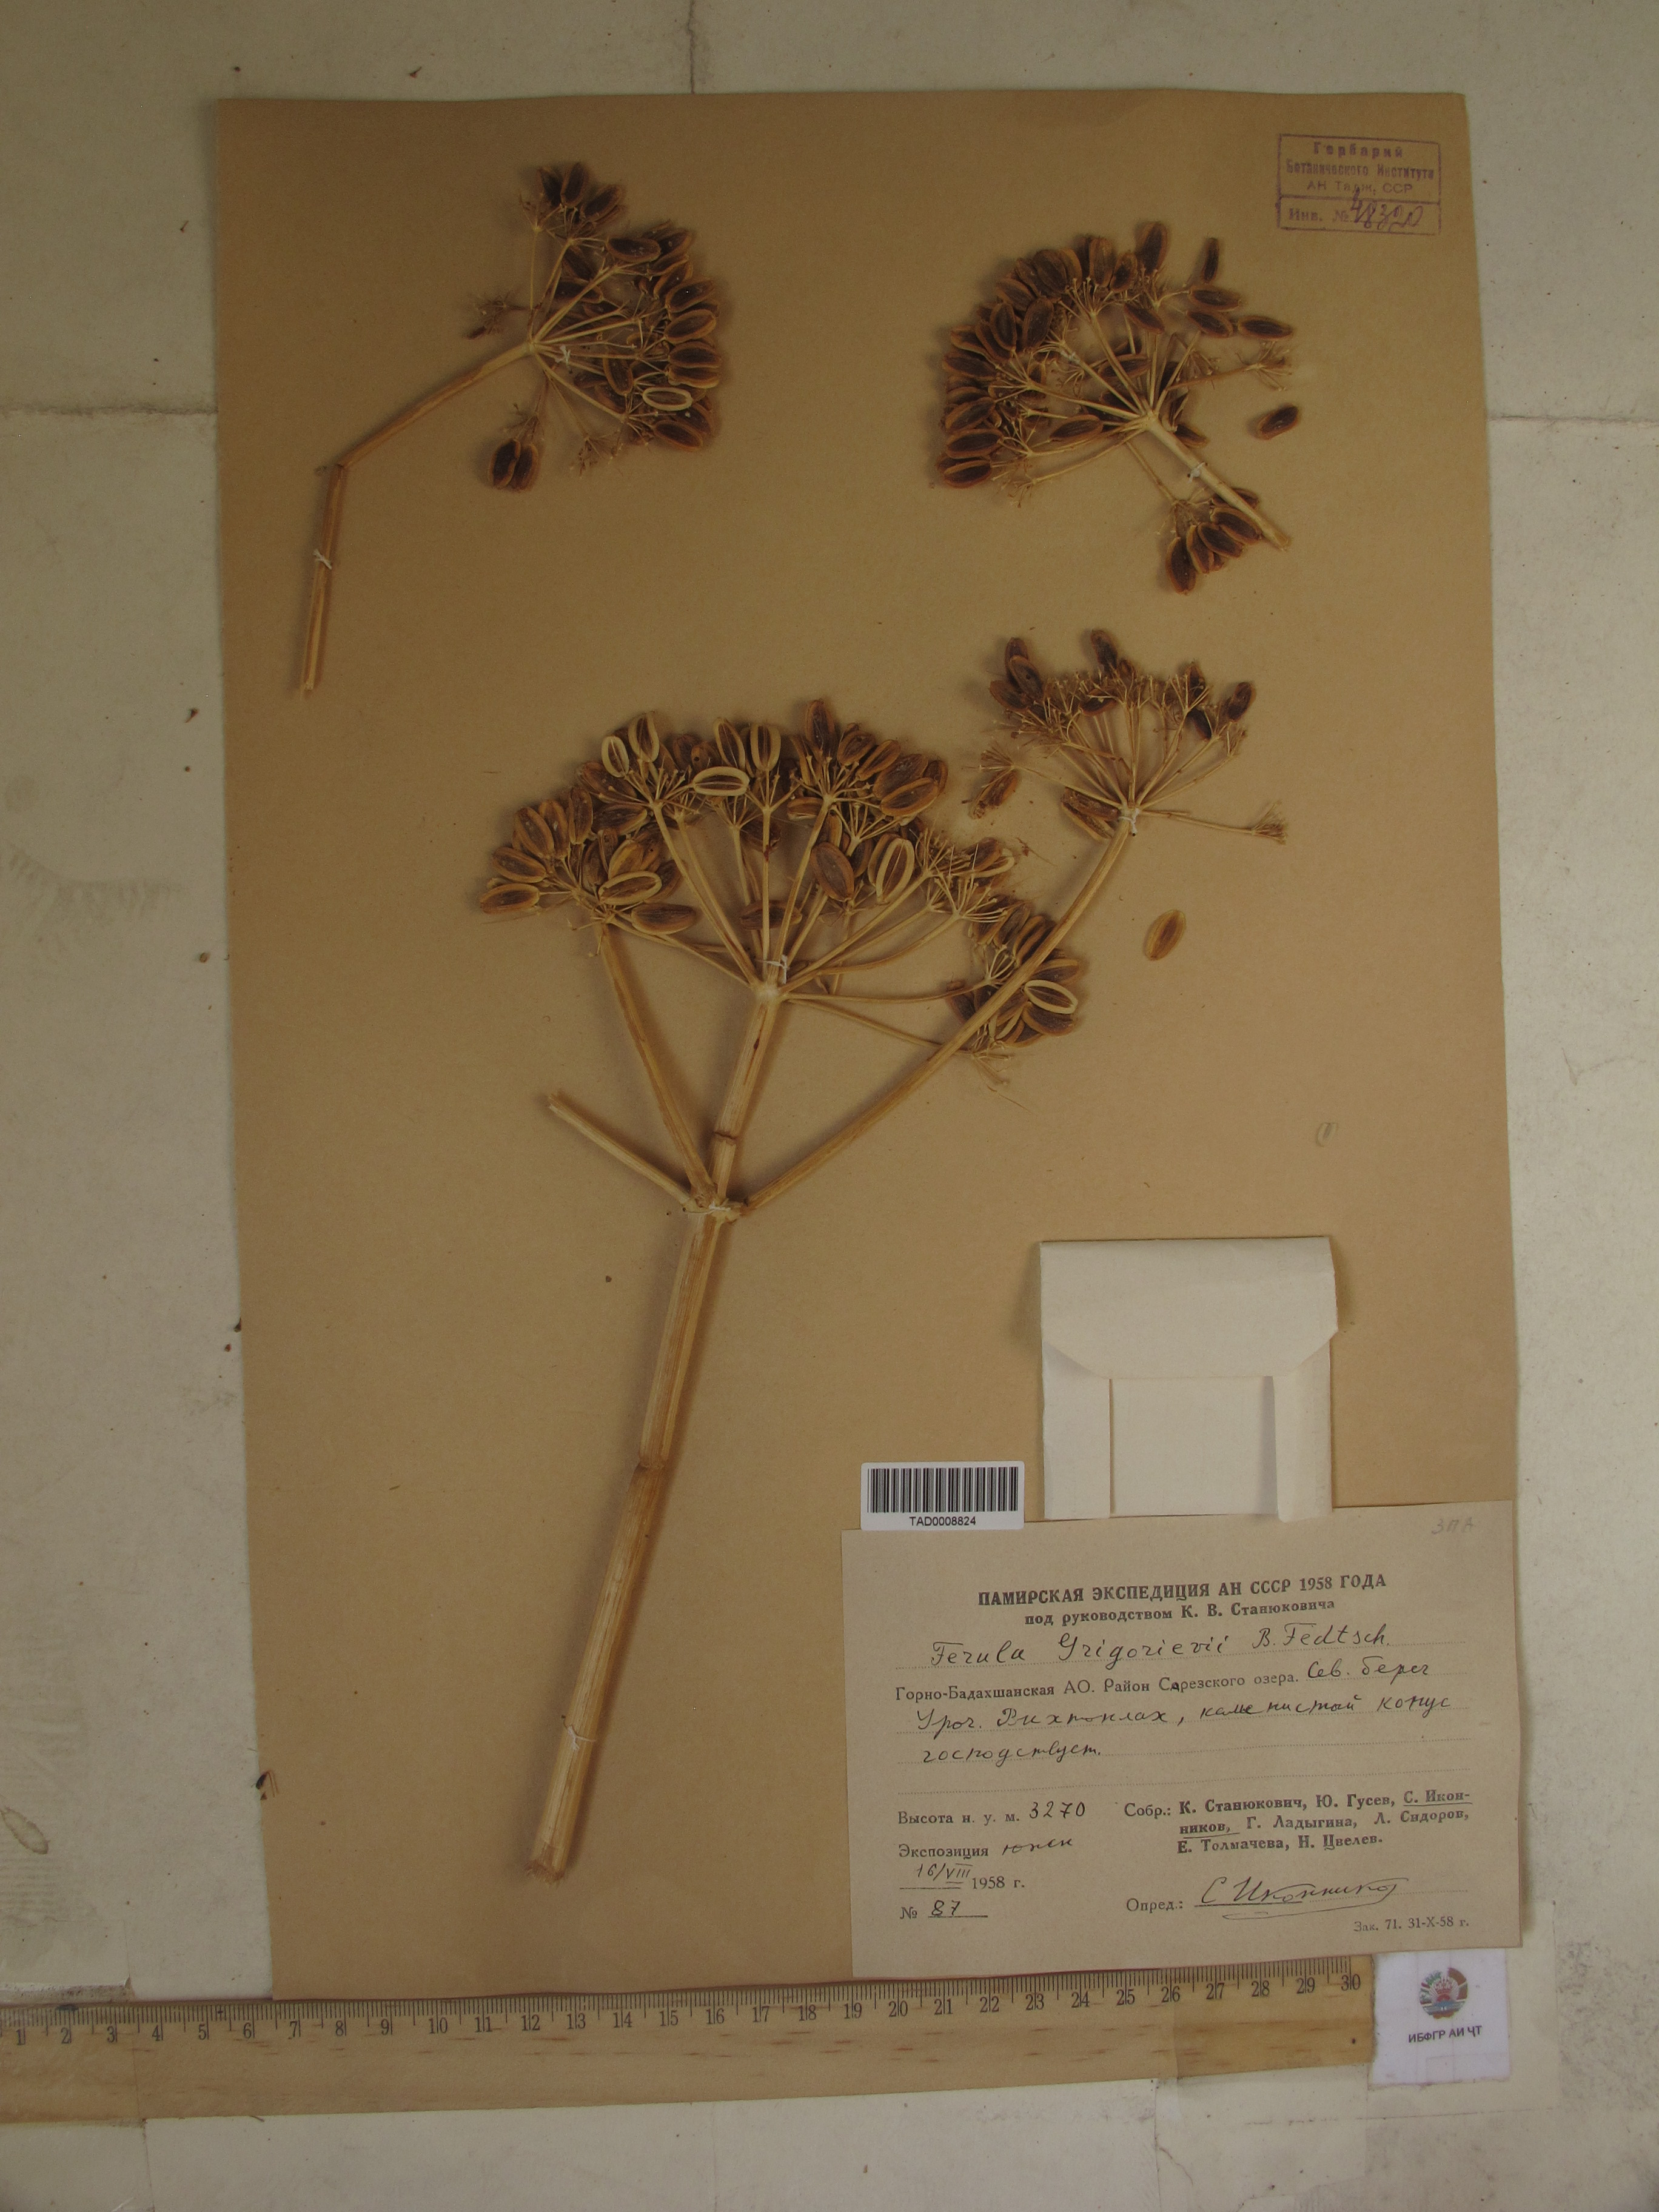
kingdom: Plantae
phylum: Tracheophyta
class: Magnoliopsida
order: Apiales
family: Apiaceae
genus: Ferula
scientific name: Ferula grigoriewii
